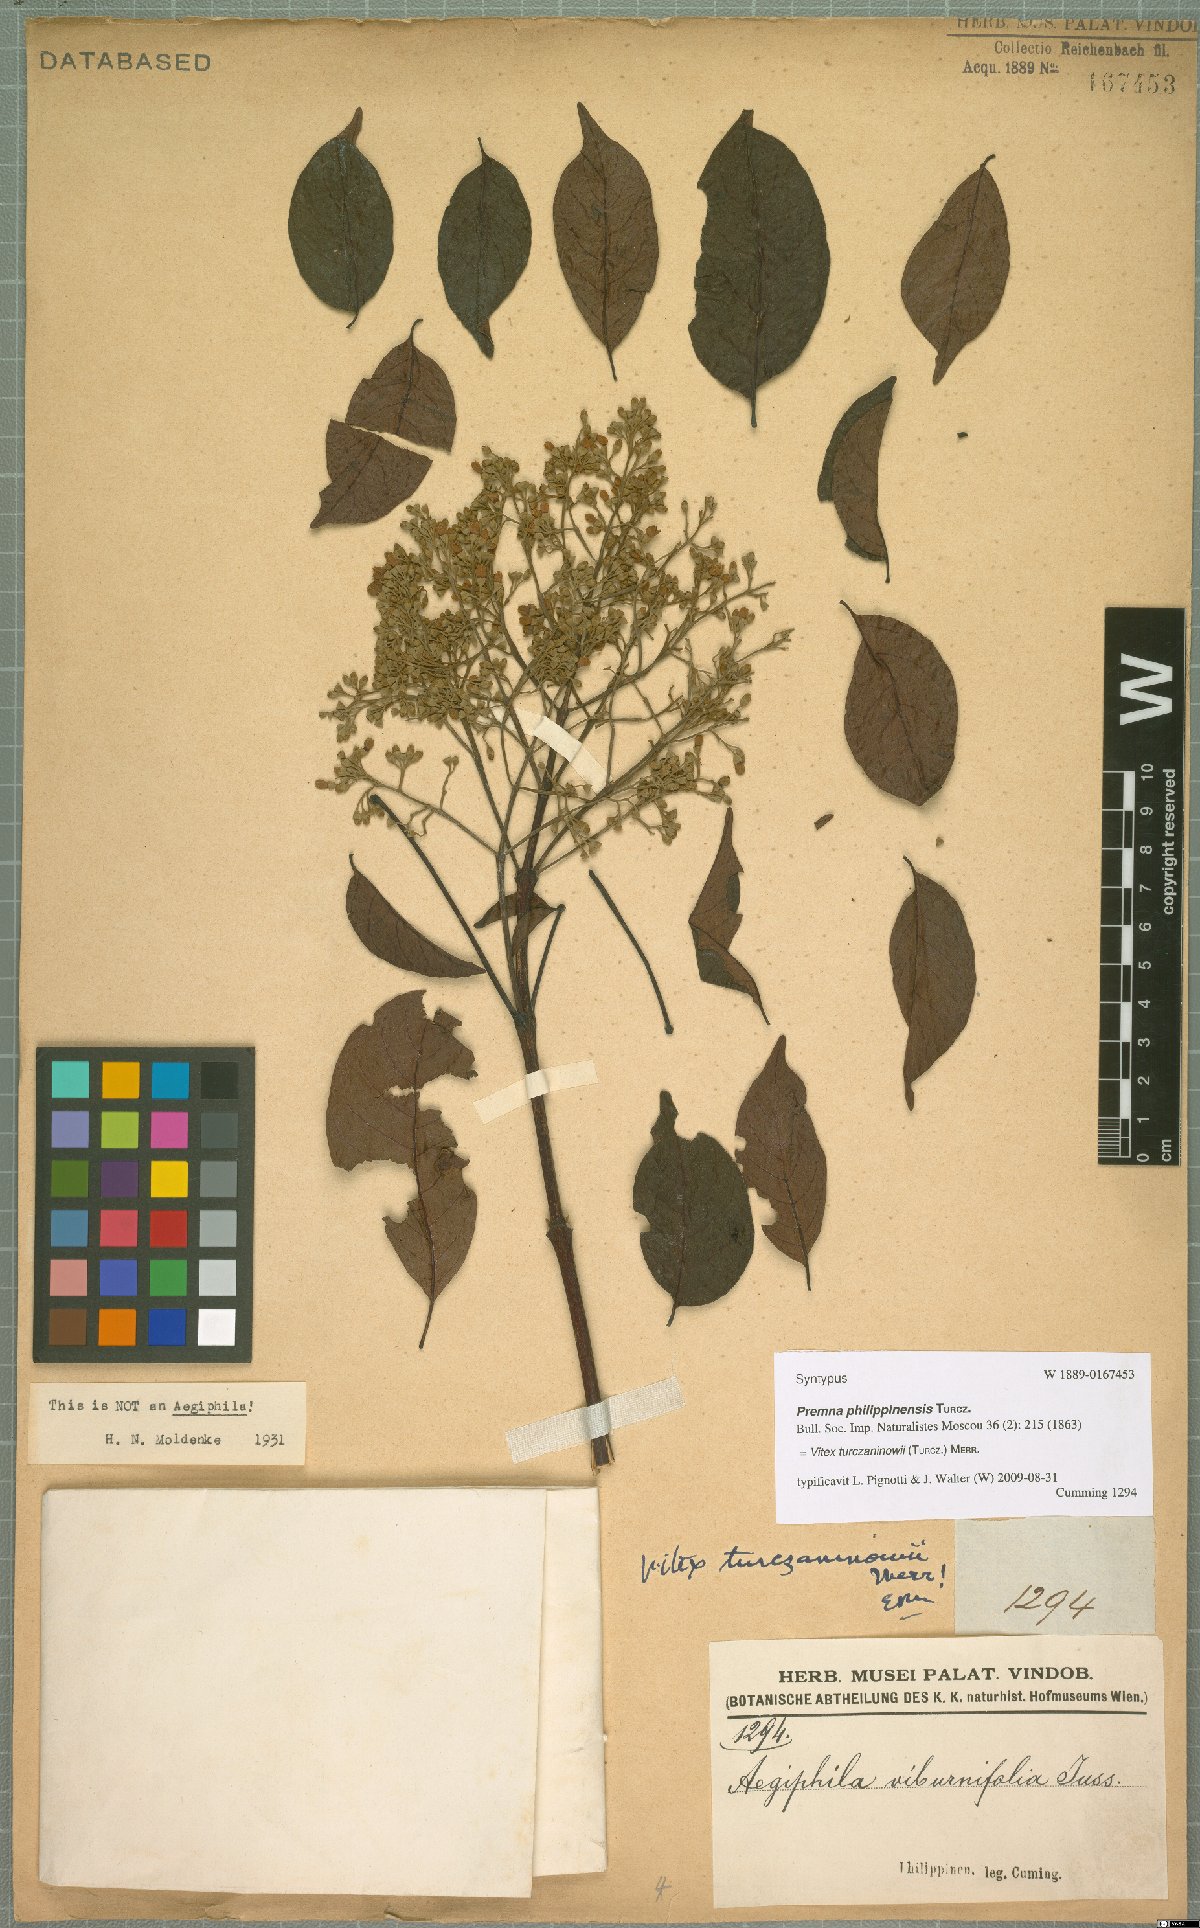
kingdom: Plantae
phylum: Tracheophyta
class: Magnoliopsida
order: Lamiales
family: Lamiaceae
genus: Vitex
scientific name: Vitex turczaninowii
